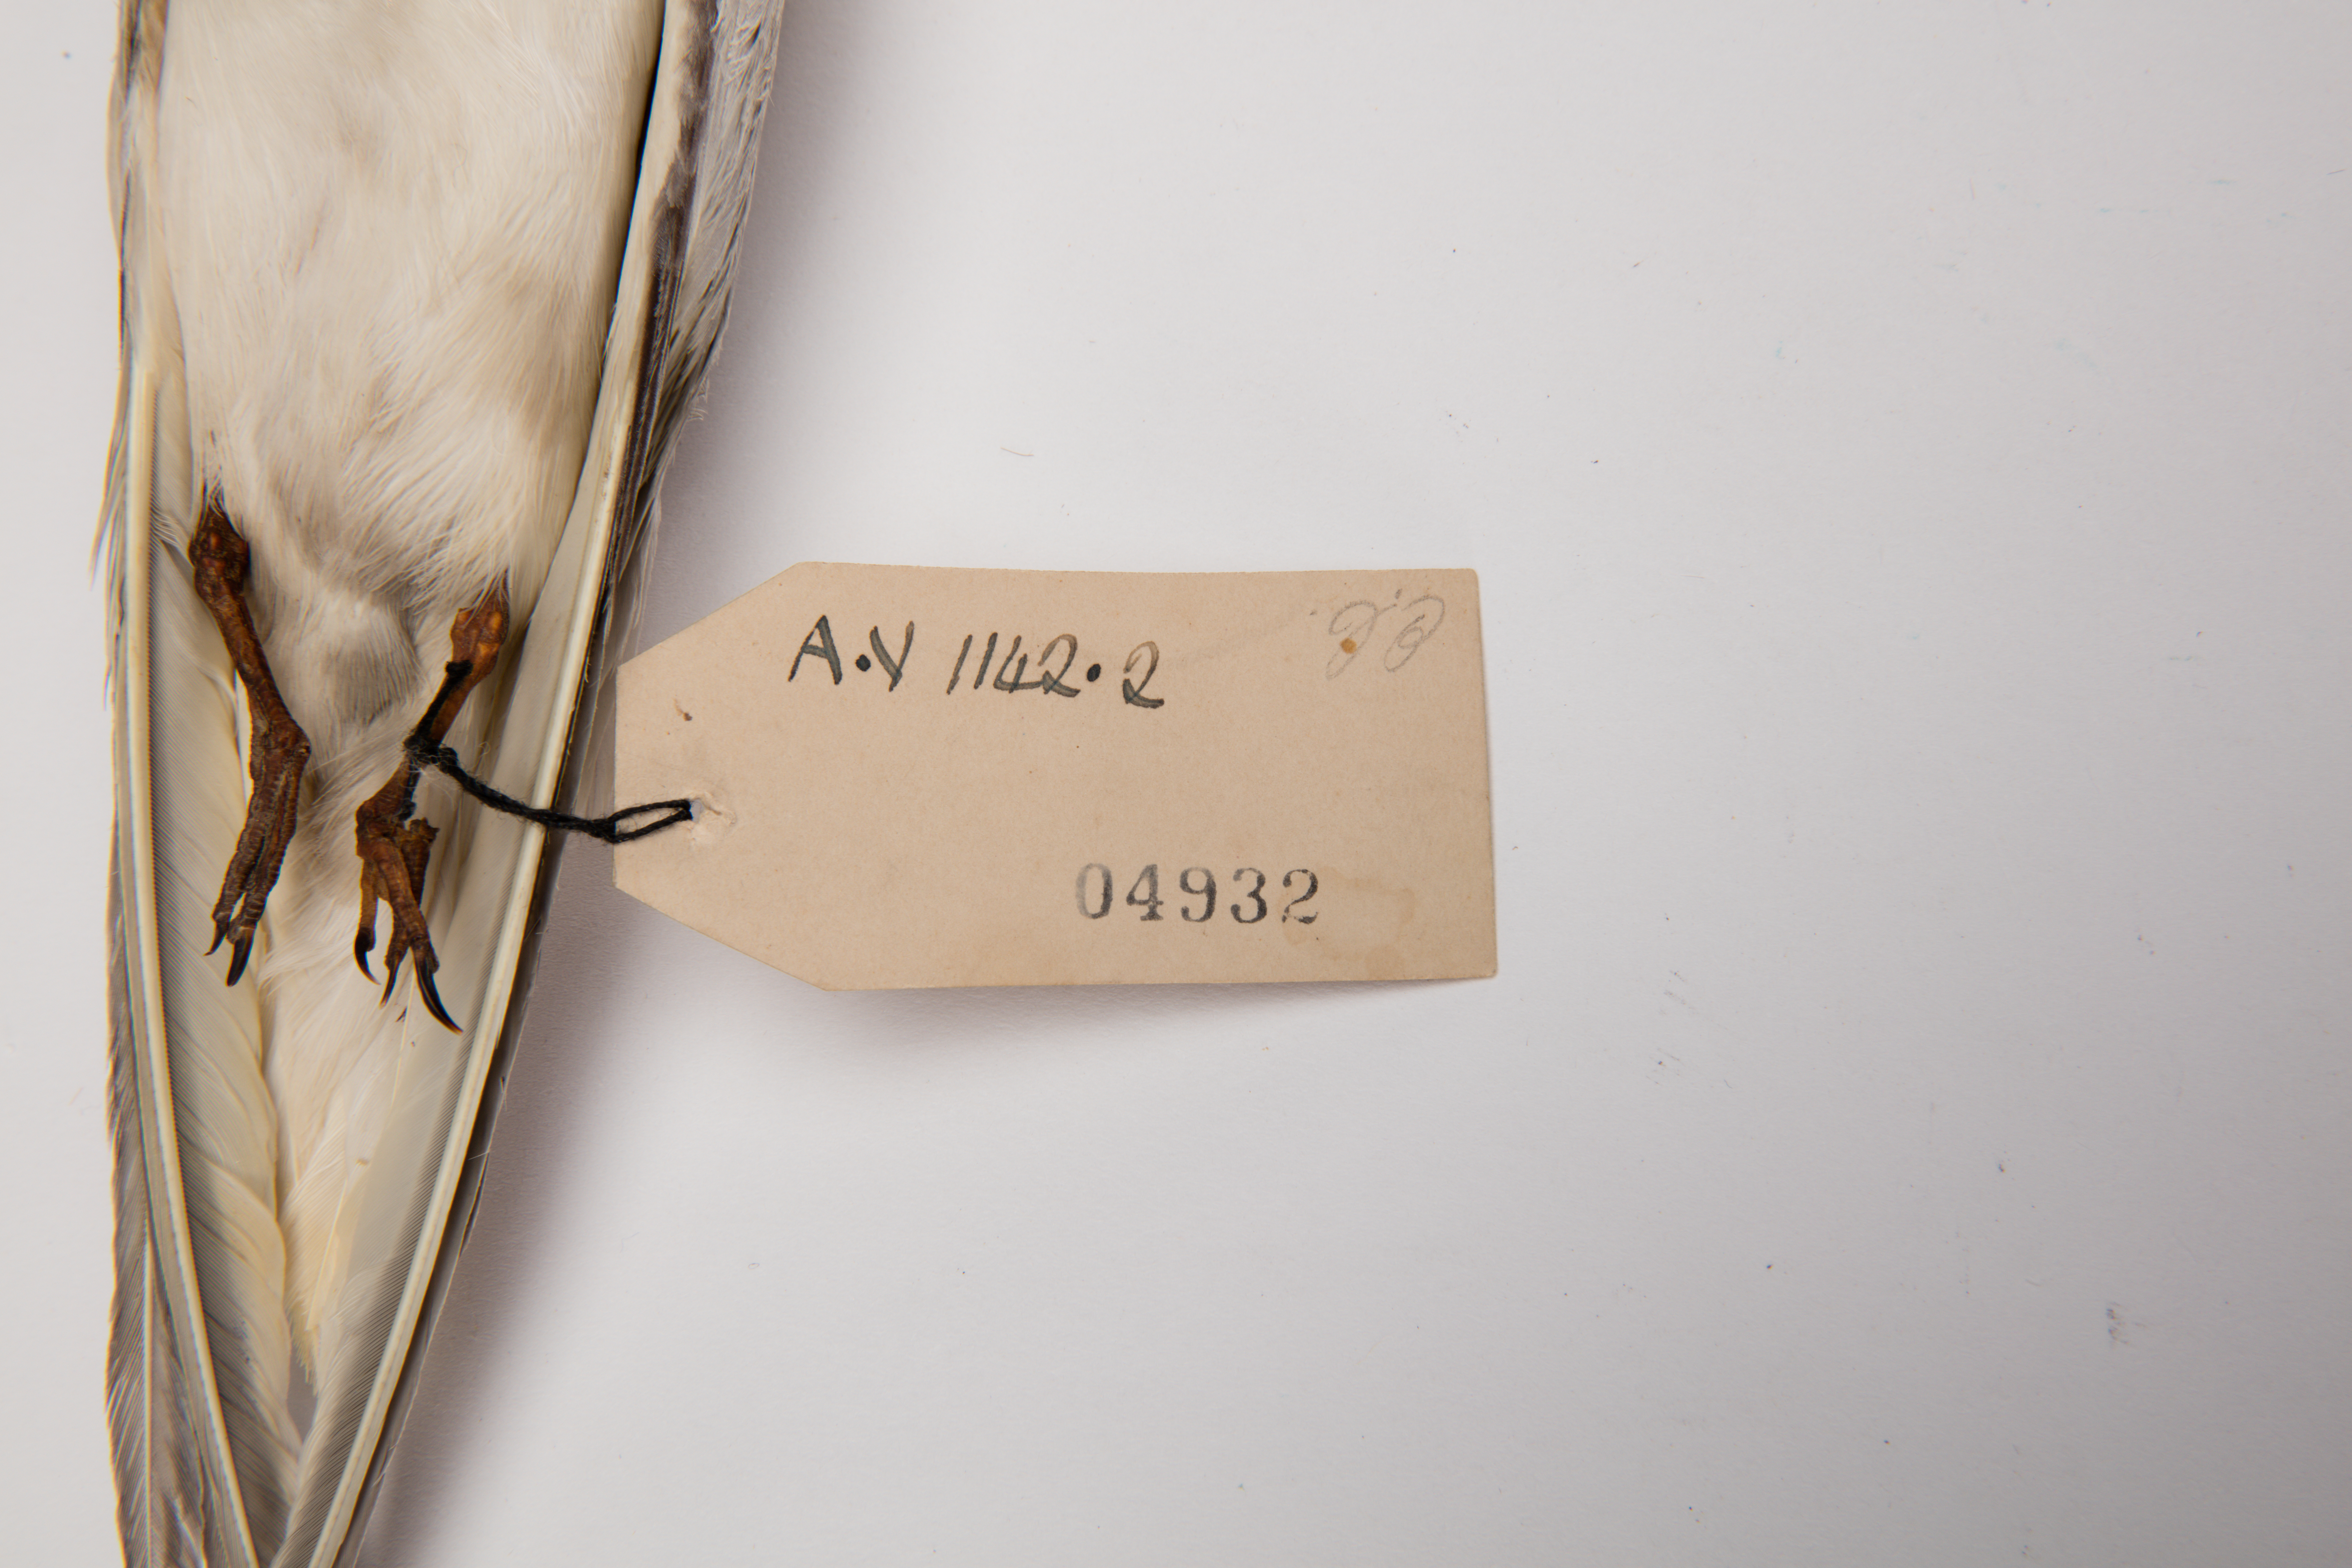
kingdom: Animalia
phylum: Chordata
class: Aves
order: Charadriiformes
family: Laridae
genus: Sternula
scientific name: Sternula nereis
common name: Fairy tern
